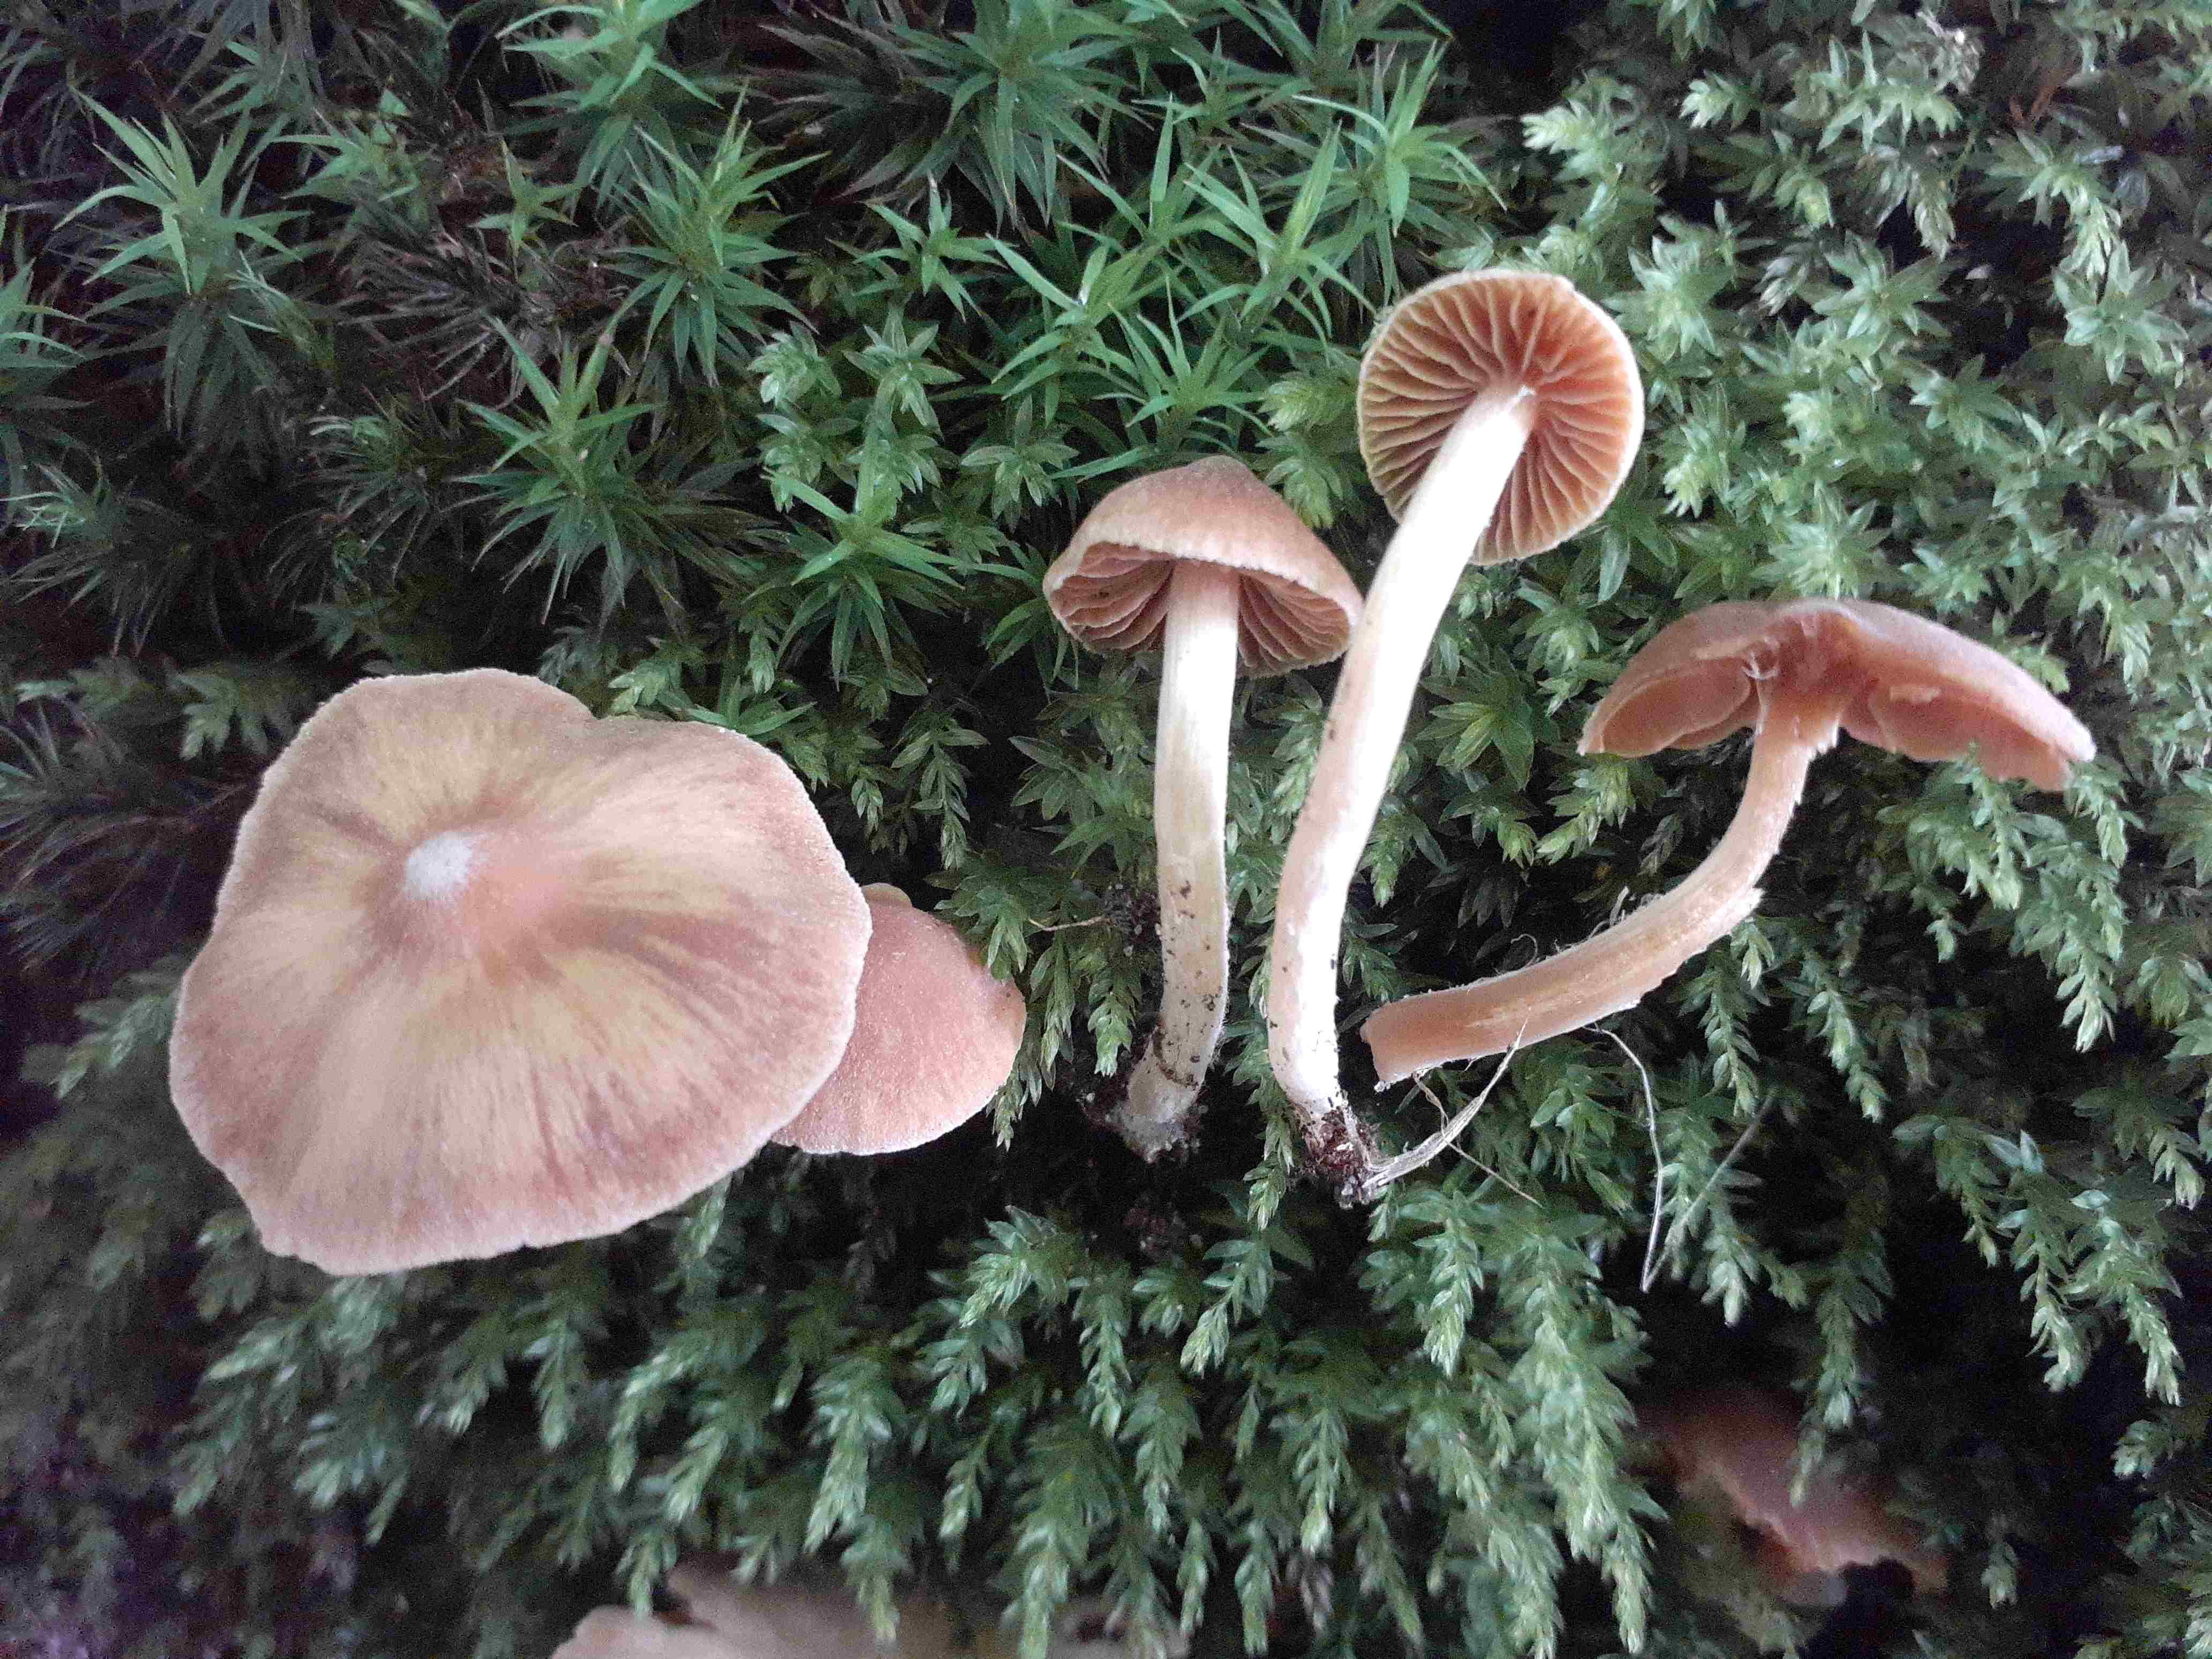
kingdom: Fungi
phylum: Basidiomycota
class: Agaricomycetes
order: Agaricales
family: Cortinariaceae
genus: Cortinarius
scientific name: Cortinarius obtusus
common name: Blunt webcap
